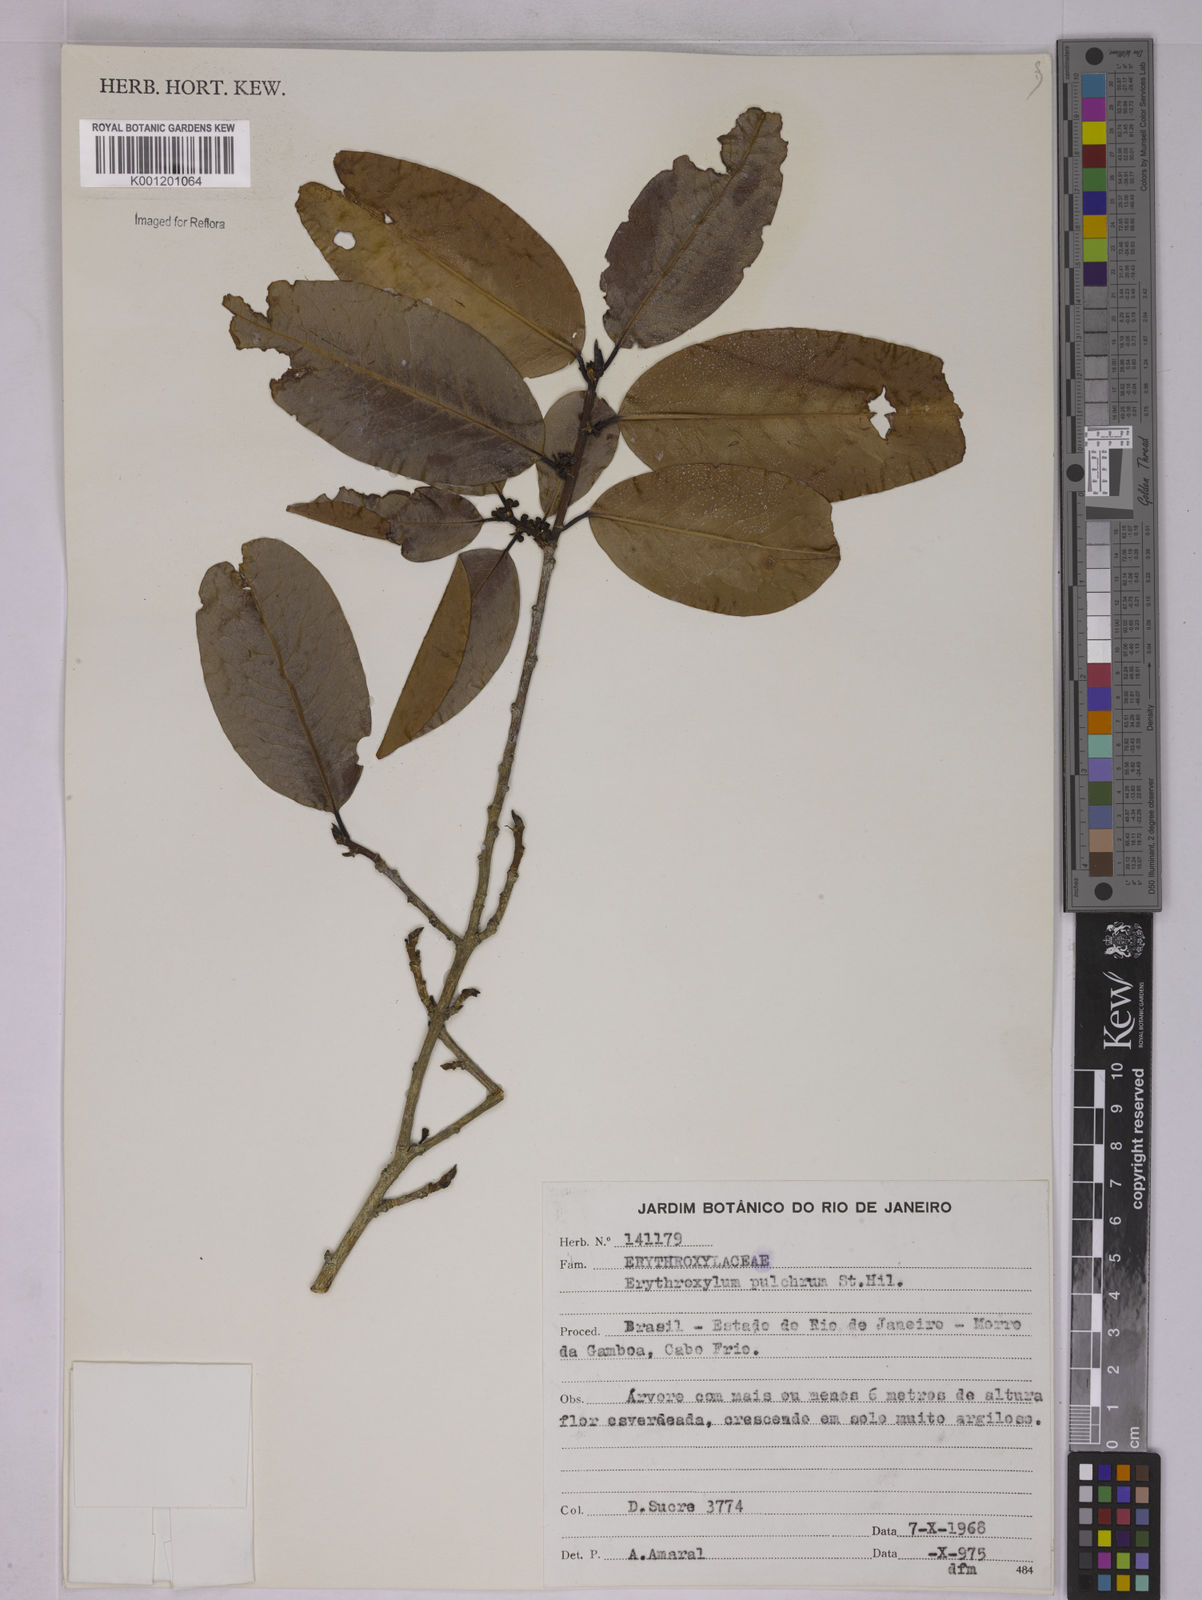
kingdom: Plantae
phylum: Tracheophyta
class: Magnoliopsida
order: Malpighiales
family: Erythroxylaceae
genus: Erythroxylum
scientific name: Erythroxylum pulchrum
